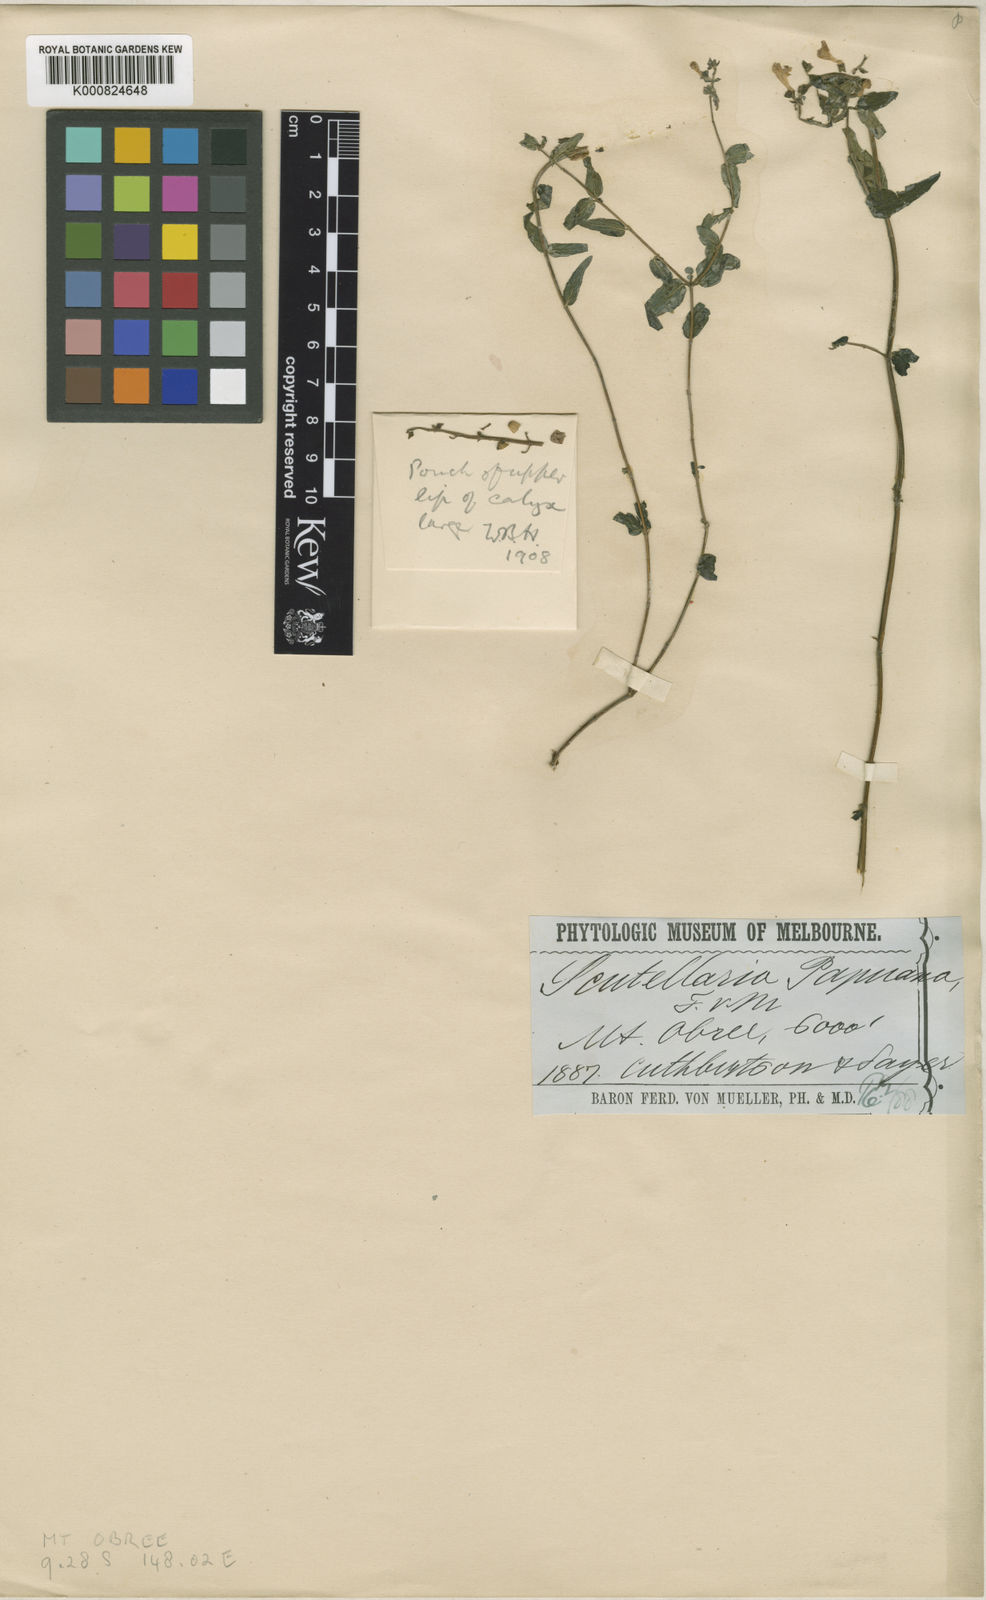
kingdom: Plantae
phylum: Tracheophyta
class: Magnoliopsida
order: Lamiales
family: Lamiaceae
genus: Scutellaria
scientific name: Scutellaria javanica
